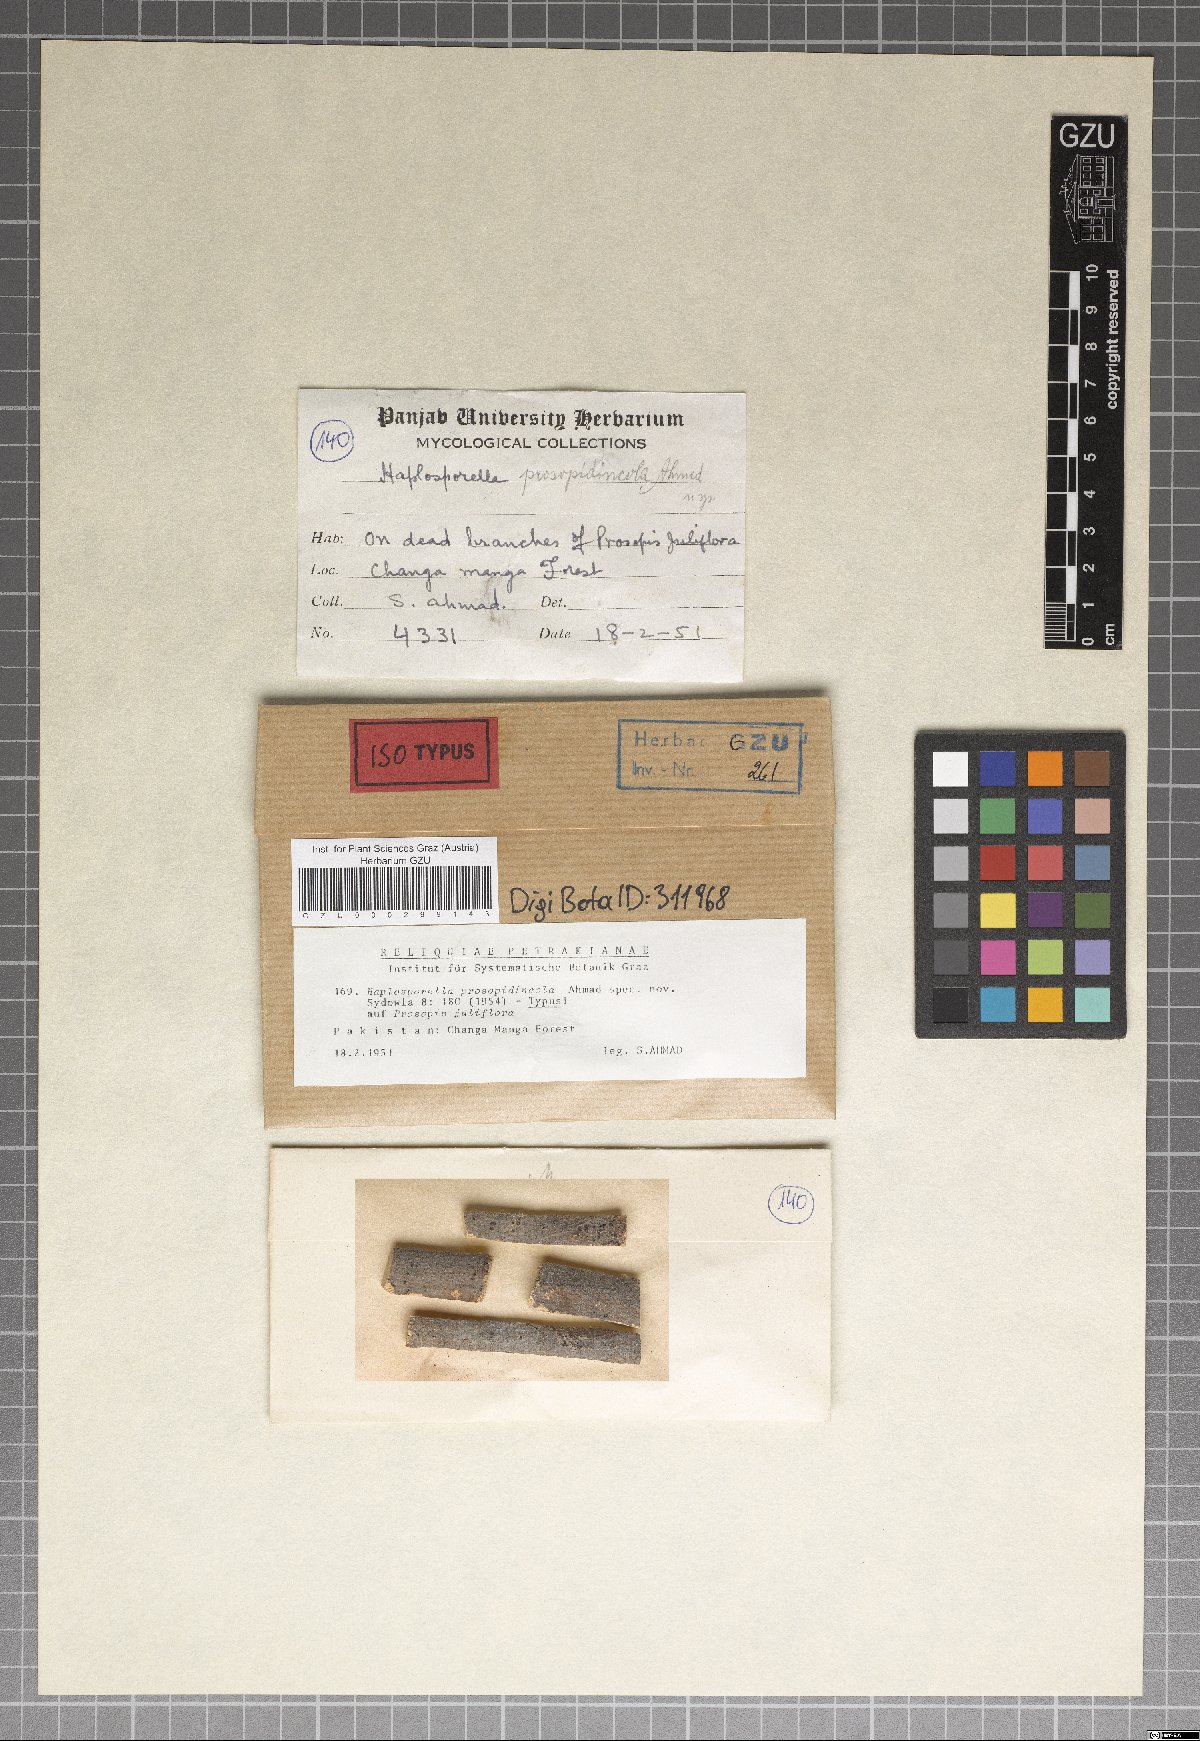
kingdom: Fungi
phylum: Ascomycota
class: Dothideomycetes
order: Botryosphaeriales
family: Aplosporellaceae
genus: Aplosporella
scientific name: Aplosporella prosopidincola
